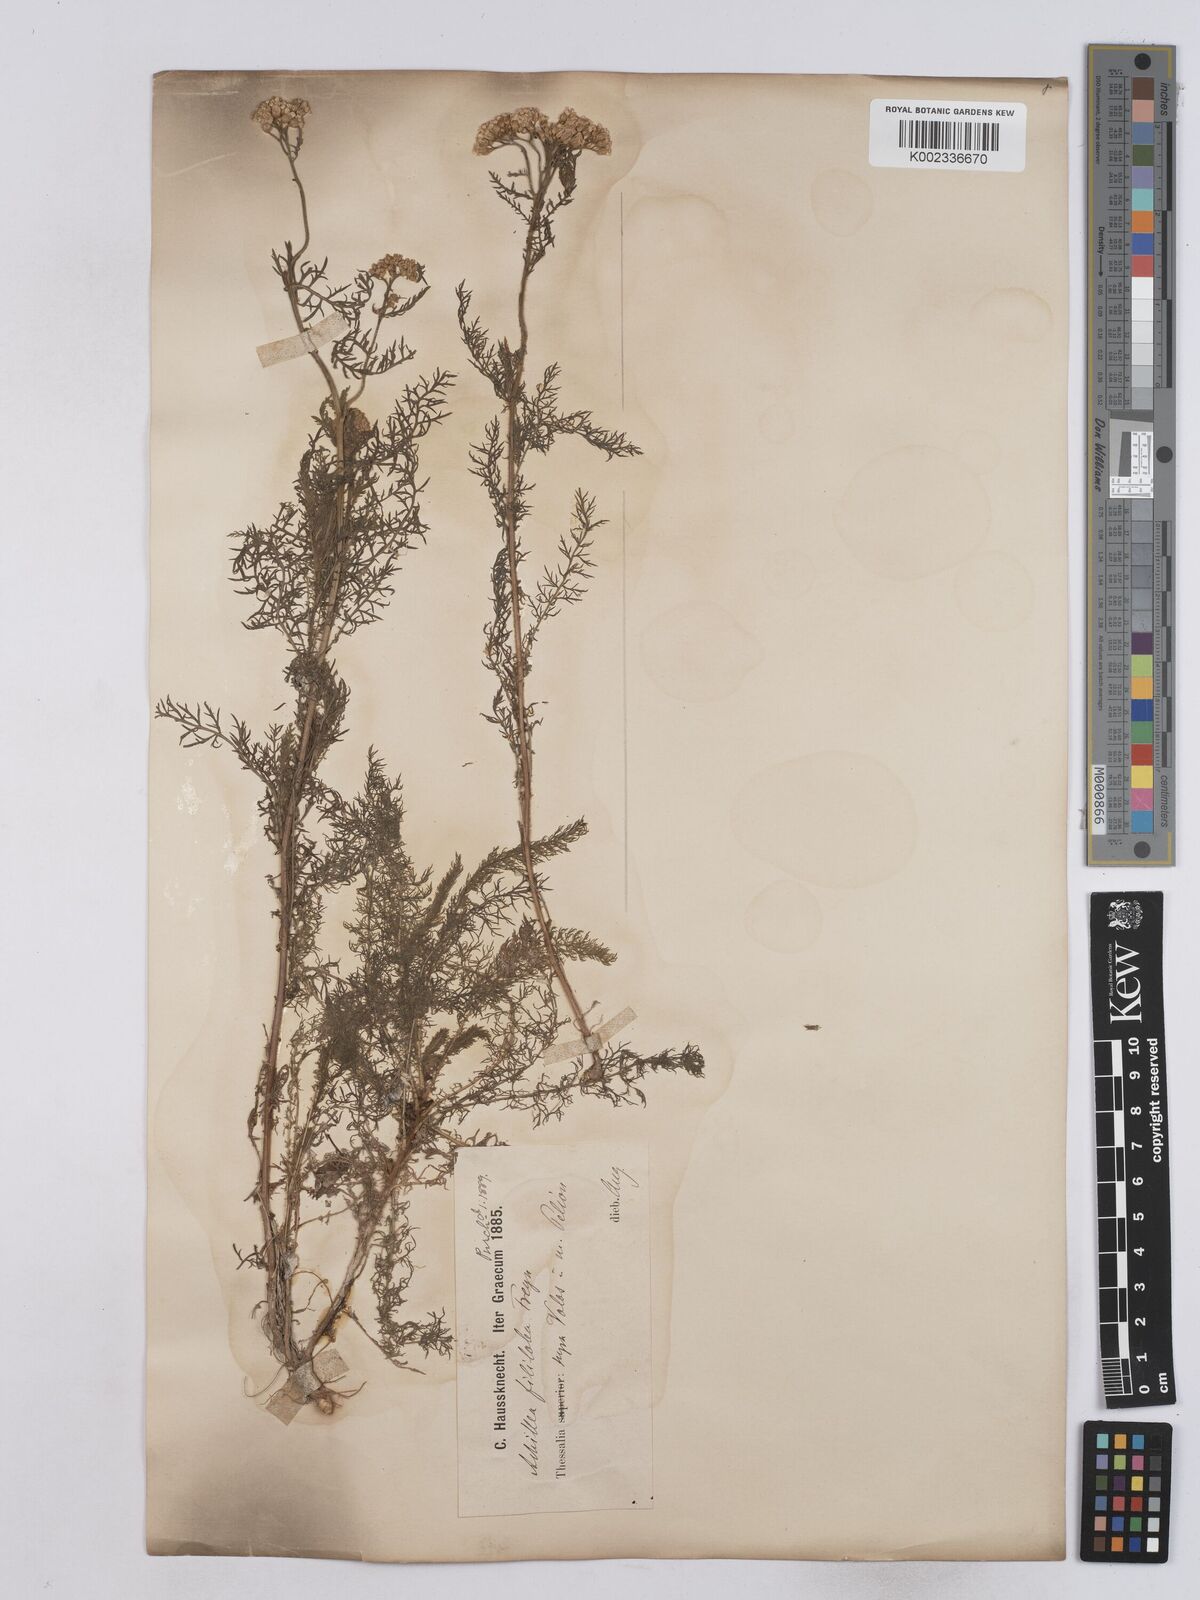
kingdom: Plantae
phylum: Tracheophyta
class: Magnoliopsida
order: Asterales
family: Asteraceae
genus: Achillea
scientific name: Achillea setacea
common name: Bristly yarrow
